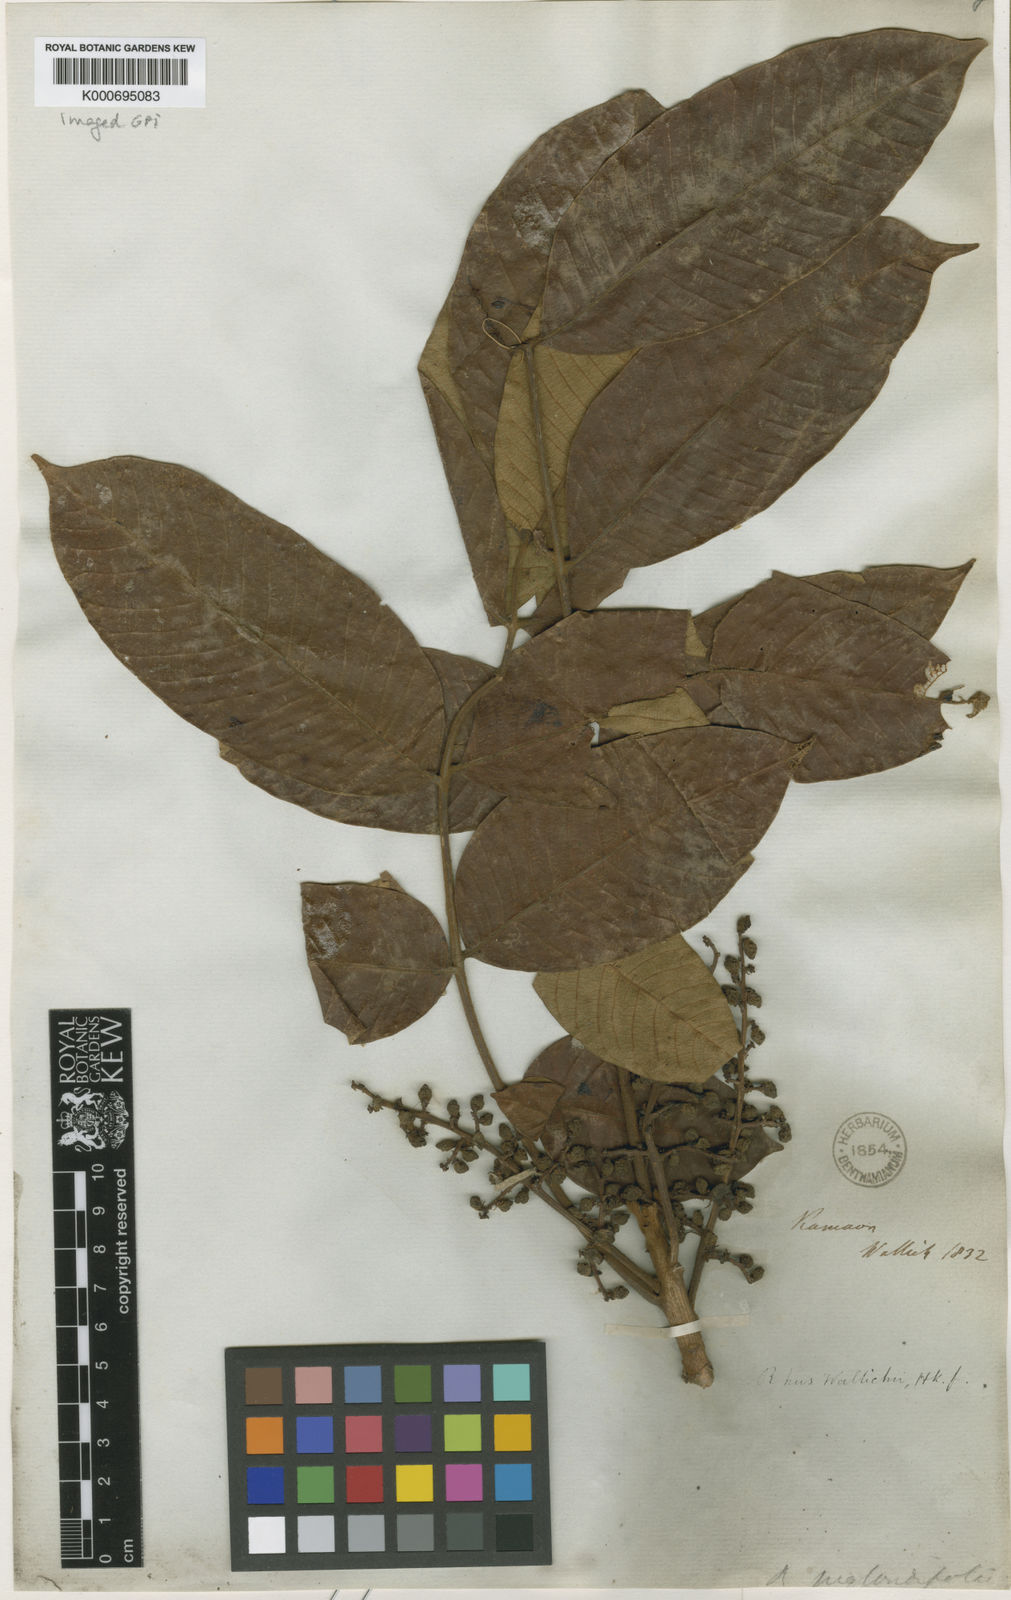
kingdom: Plantae
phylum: Tracheophyta
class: Magnoliopsida
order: Sapindales
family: Anacardiaceae
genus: Toxicodendron
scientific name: Toxicodendron wallichii
